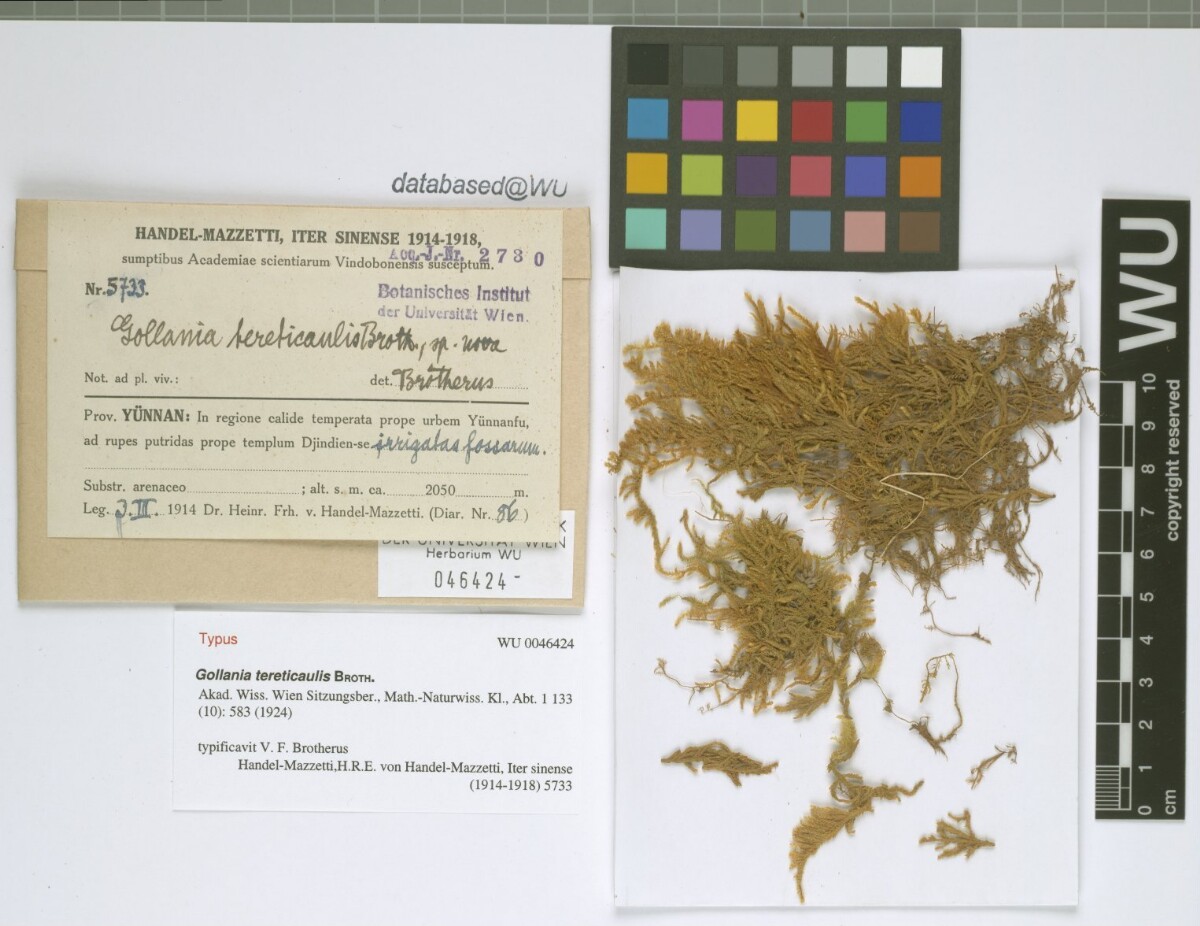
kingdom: Plantae
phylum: Bryophyta
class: Bryopsida
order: Hypnales
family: Hypnaceae
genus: Gollania
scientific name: Gollania tereticaulis
